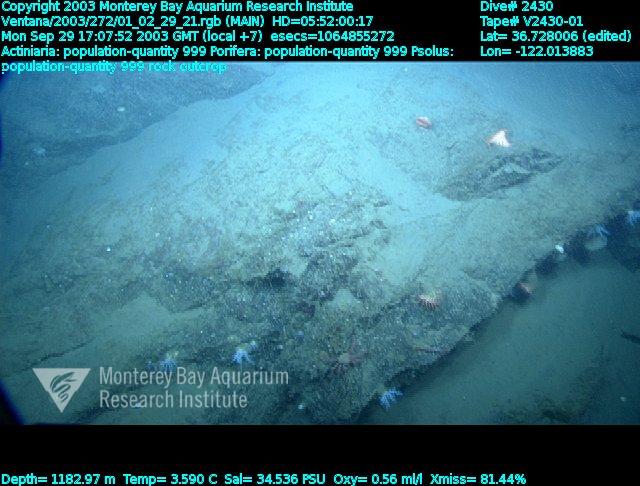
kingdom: Animalia
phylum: Porifera
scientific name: Porifera
